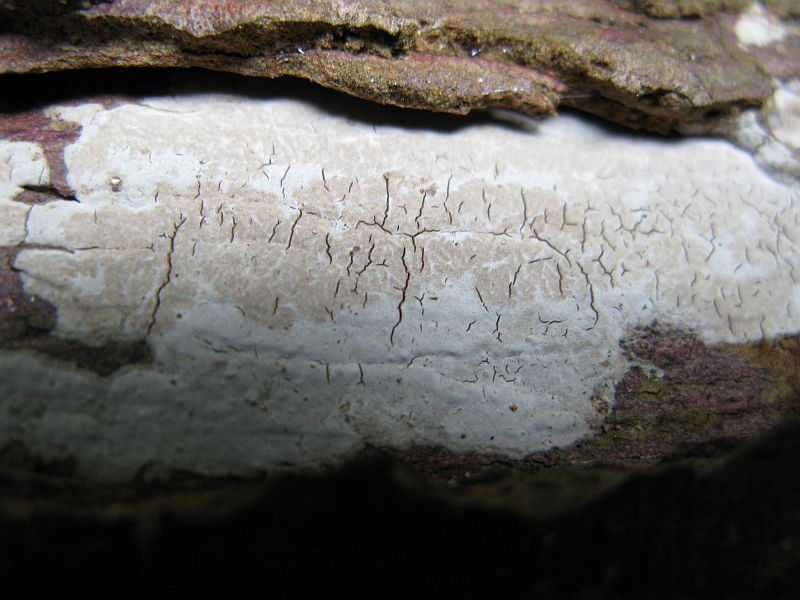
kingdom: Fungi
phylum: Basidiomycota
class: Agaricomycetes
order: Russulales
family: Echinodontiaceae
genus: Amylostereum
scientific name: Amylostereum laevigatum
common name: ene-lædersvamp
